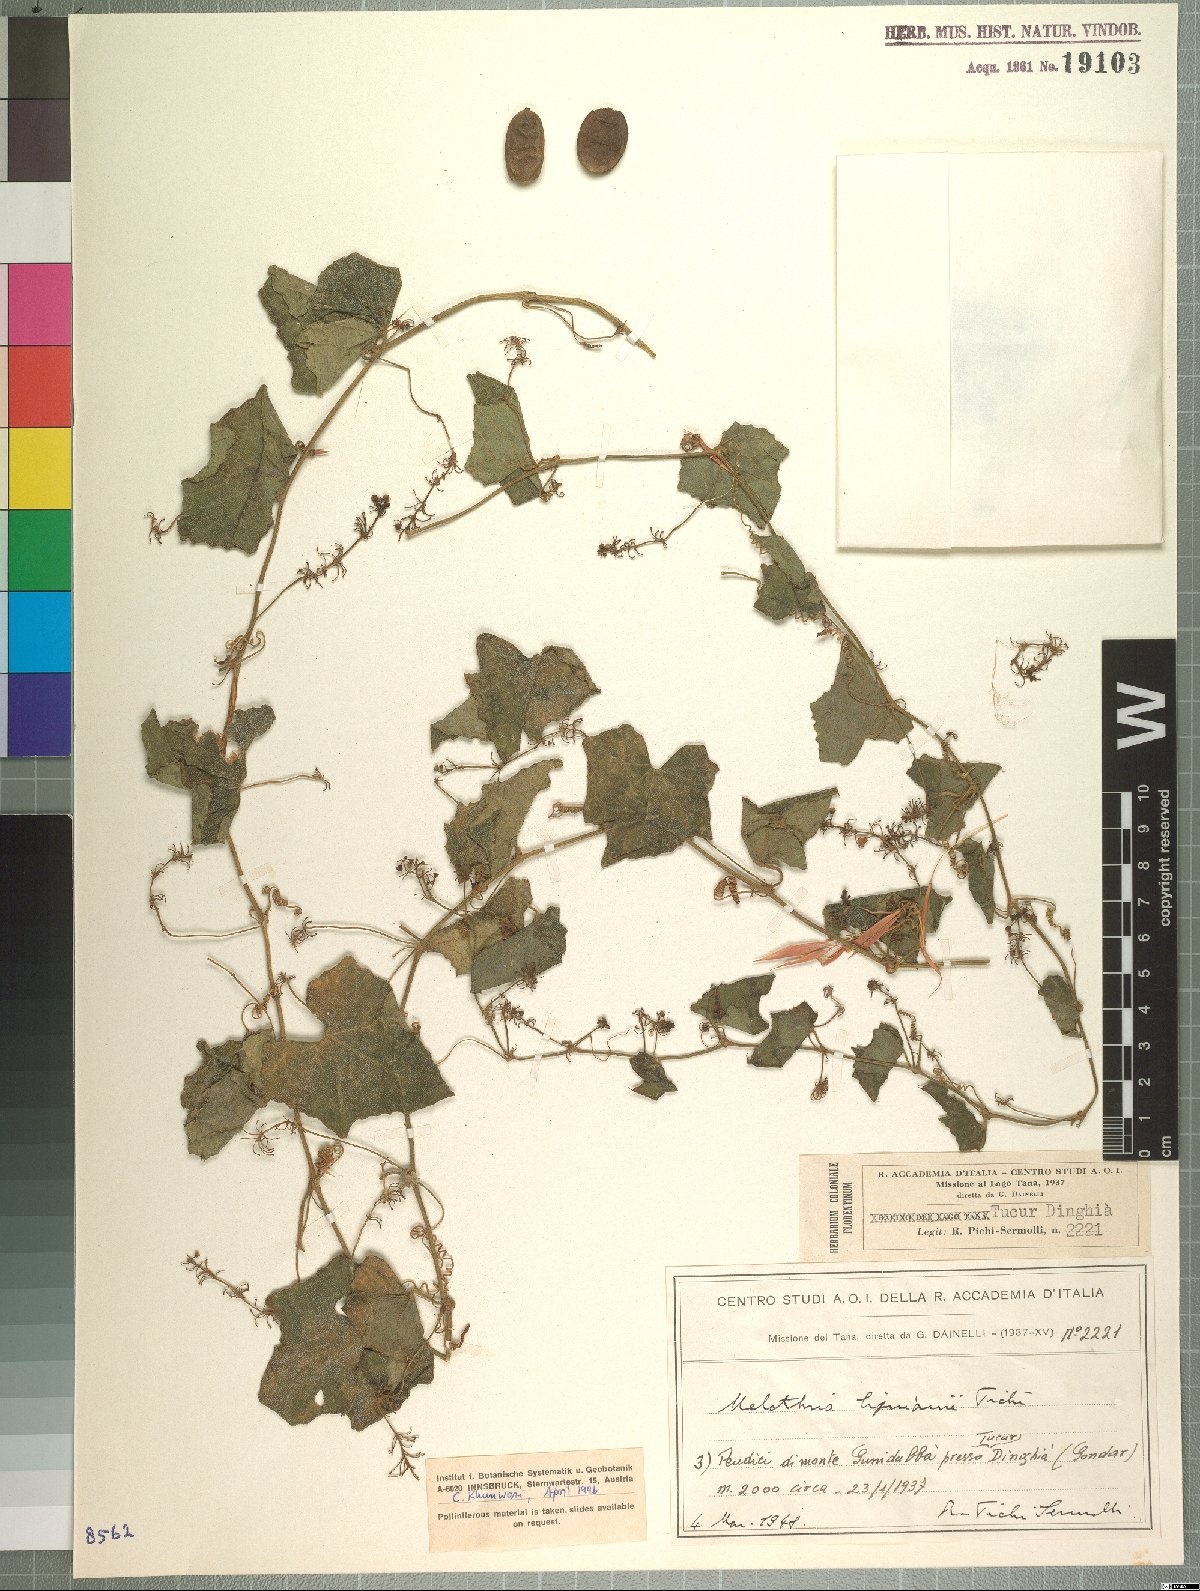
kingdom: Plantae
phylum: Tracheophyta
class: Magnoliopsida
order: Cucurbitales
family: Cucurbitaceae
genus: Zehneria
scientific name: Zehneria scabra
